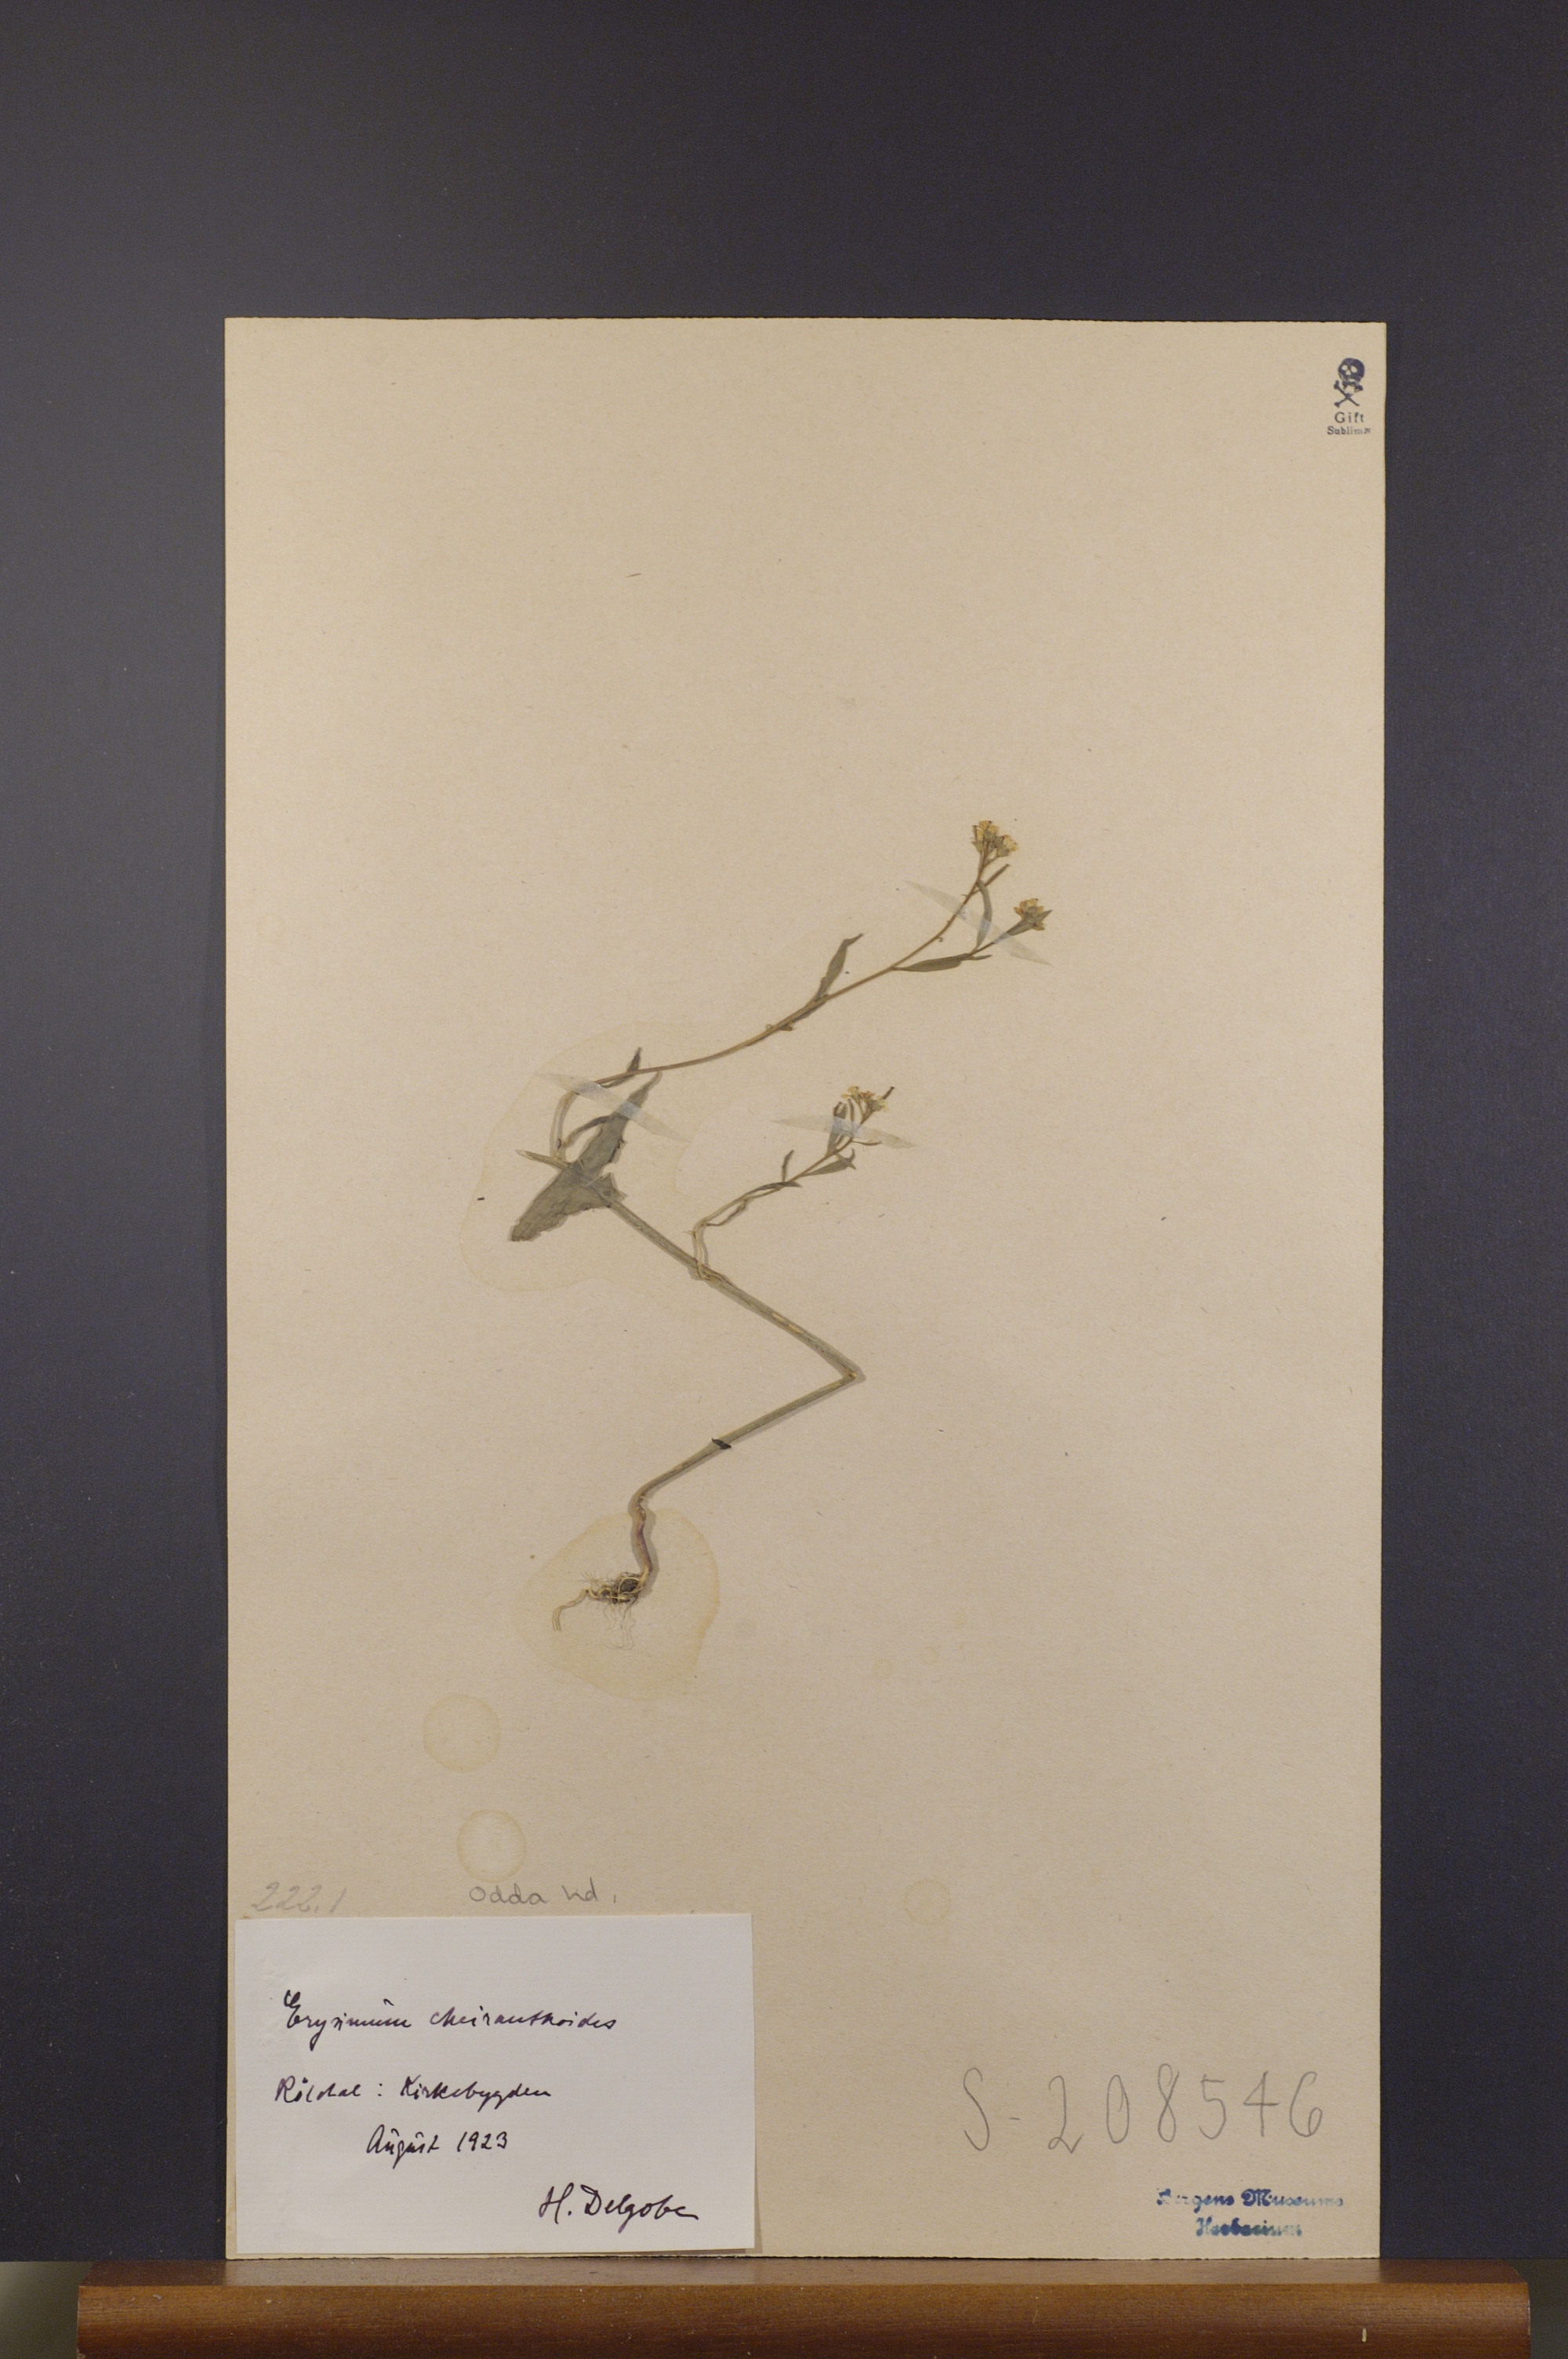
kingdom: Plantae
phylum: Tracheophyta
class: Magnoliopsida
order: Brassicales
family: Brassicaceae
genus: Erysimum
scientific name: Erysimum cheiranthoides
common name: Treacle mustard
